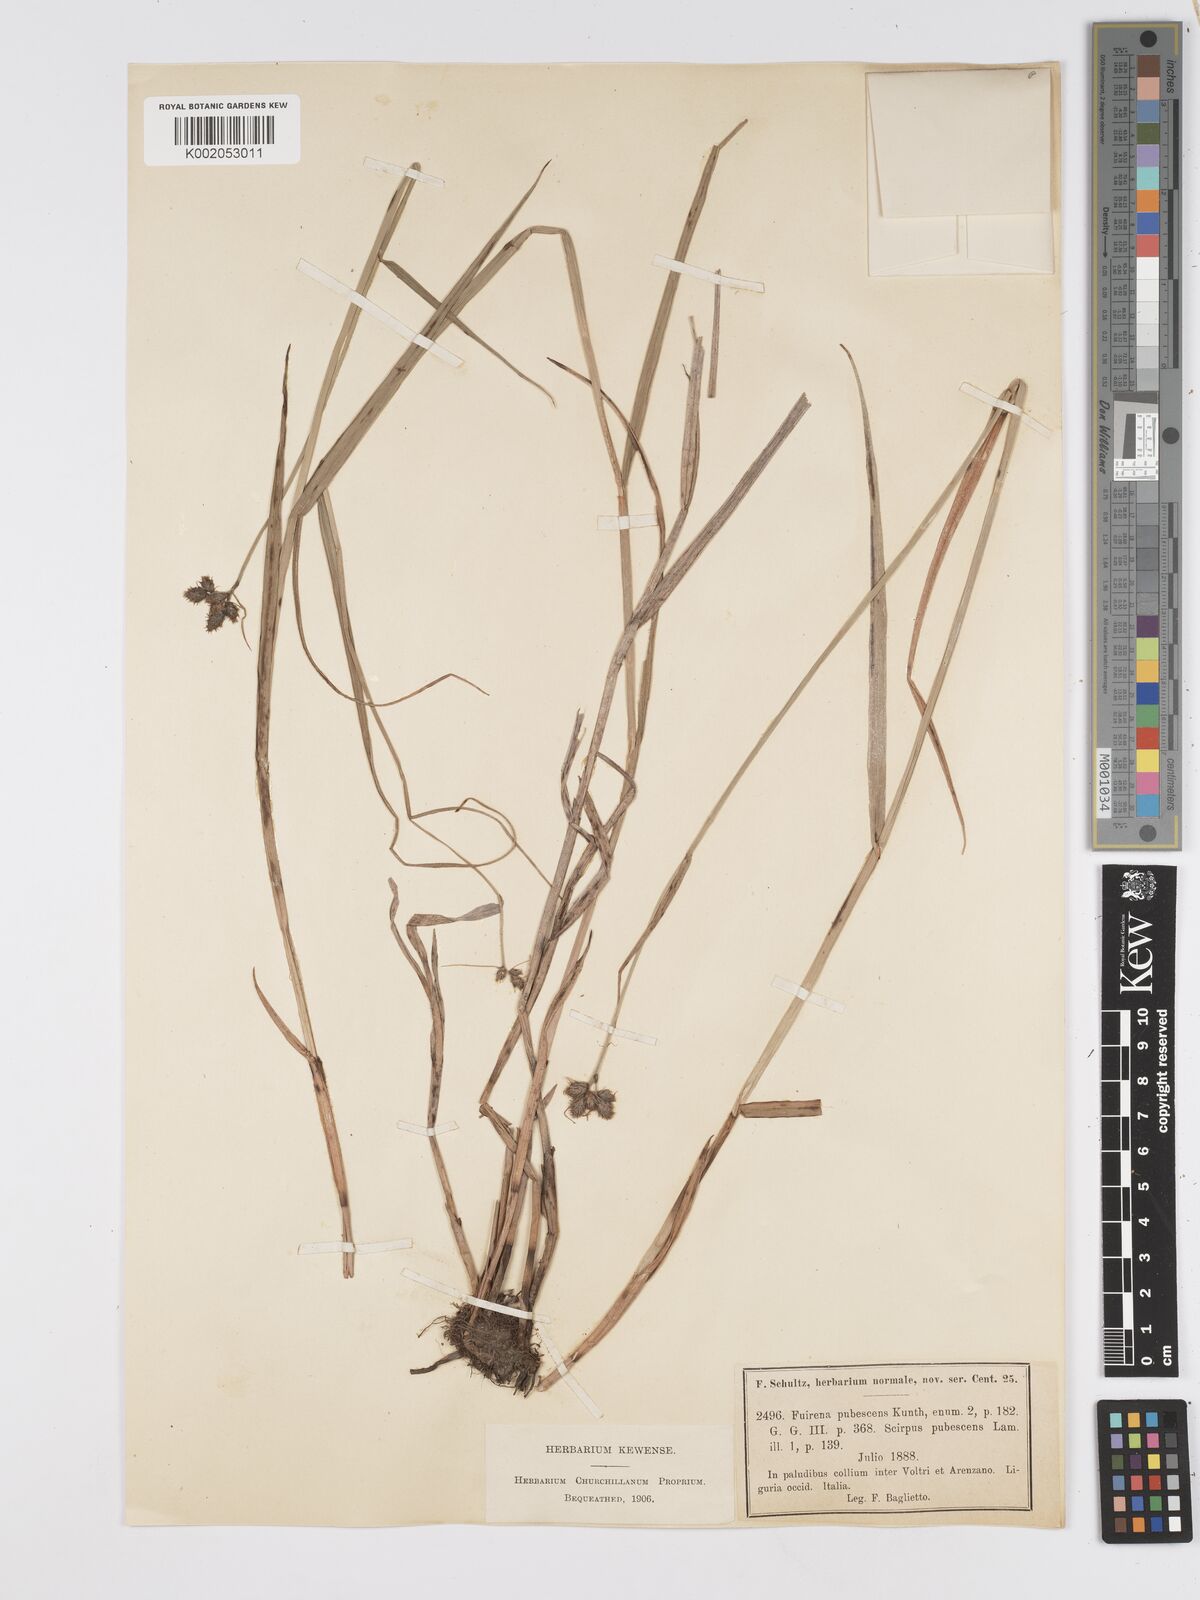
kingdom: Plantae
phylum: Tracheophyta
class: Liliopsida
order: Poales
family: Cyperaceae
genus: Fuirena
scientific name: Fuirena pubescens
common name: Hairy sedge
